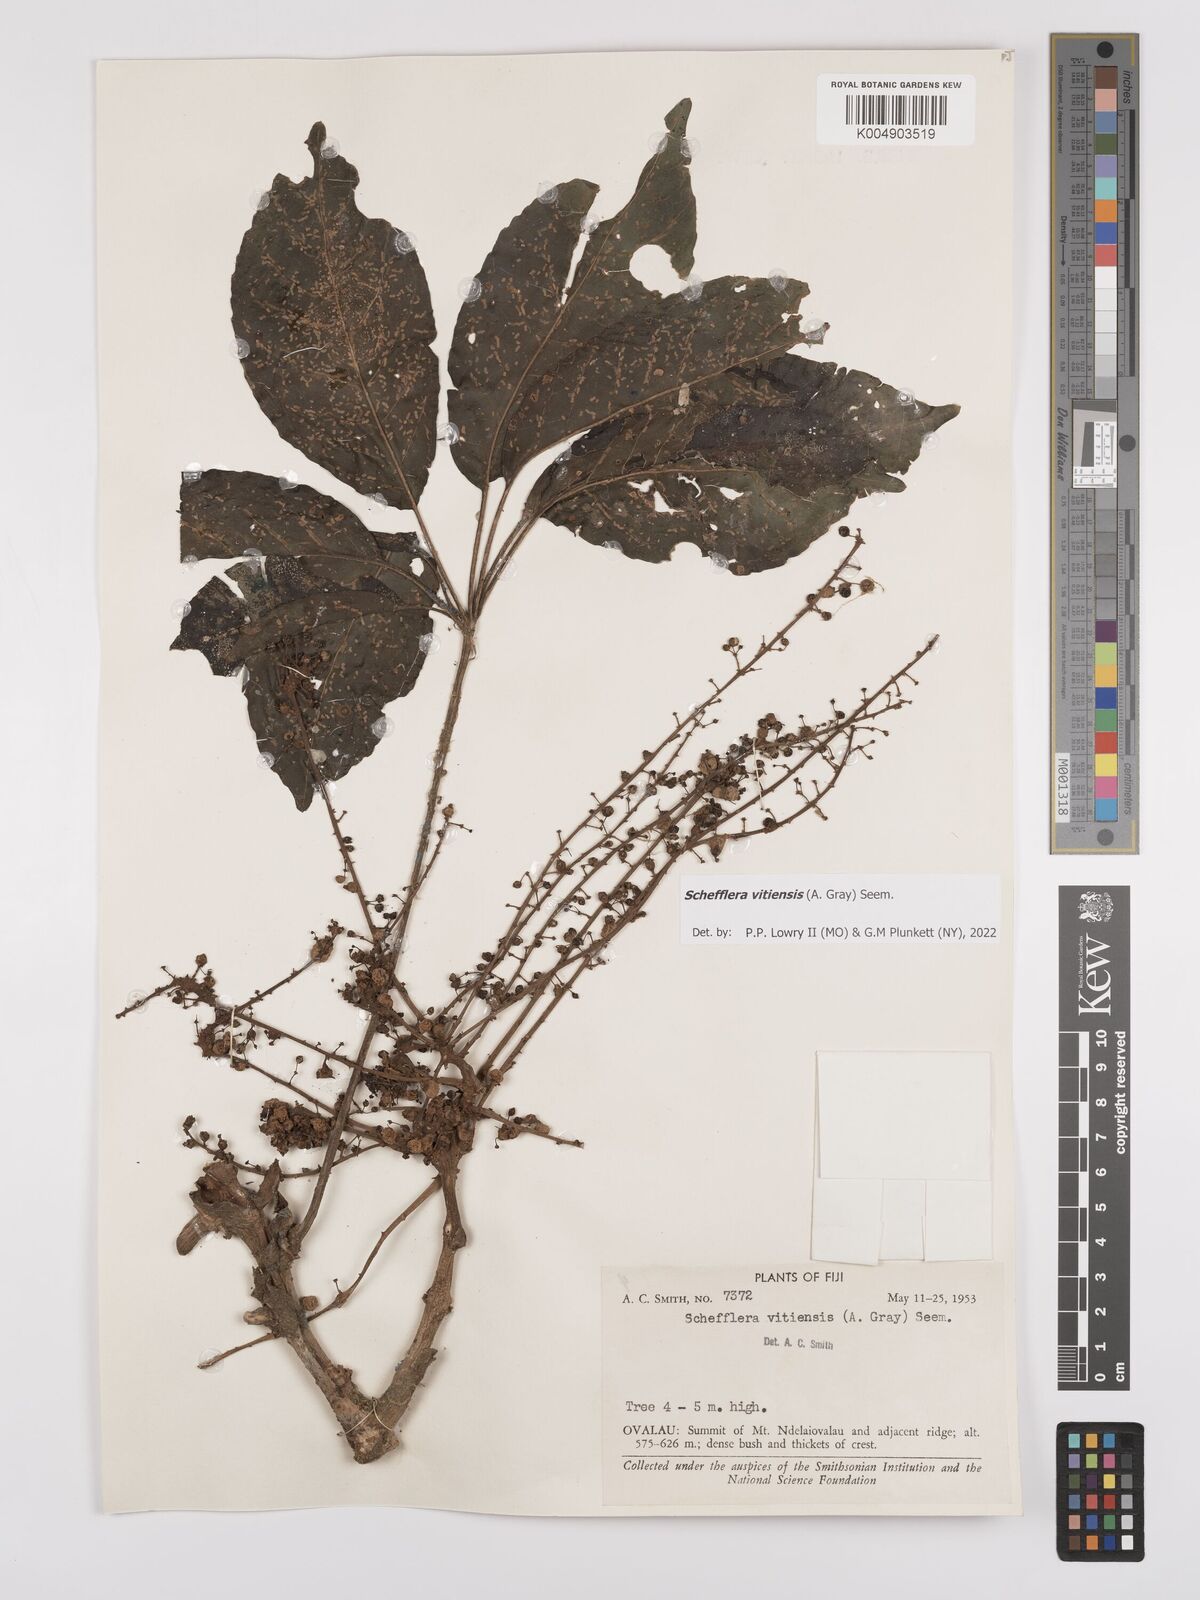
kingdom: Plantae
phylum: Tracheophyta
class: Magnoliopsida
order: Apiales
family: Araliaceae
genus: Schefflera
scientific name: Schefflera vitiensis
